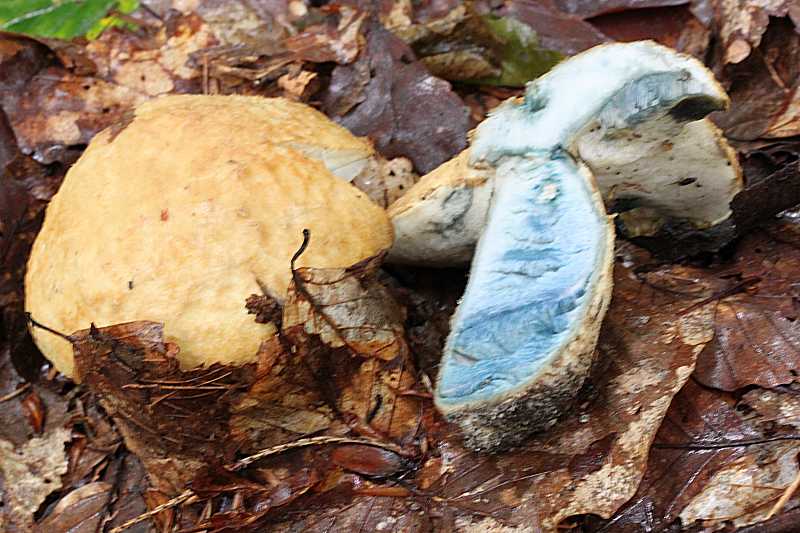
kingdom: Fungi
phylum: Basidiomycota
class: Agaricomycetes
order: Boletales
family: Gyroporaceae
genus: Gyroporus
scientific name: Gyroporus cyanescens
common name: blånende kammerrørhat
